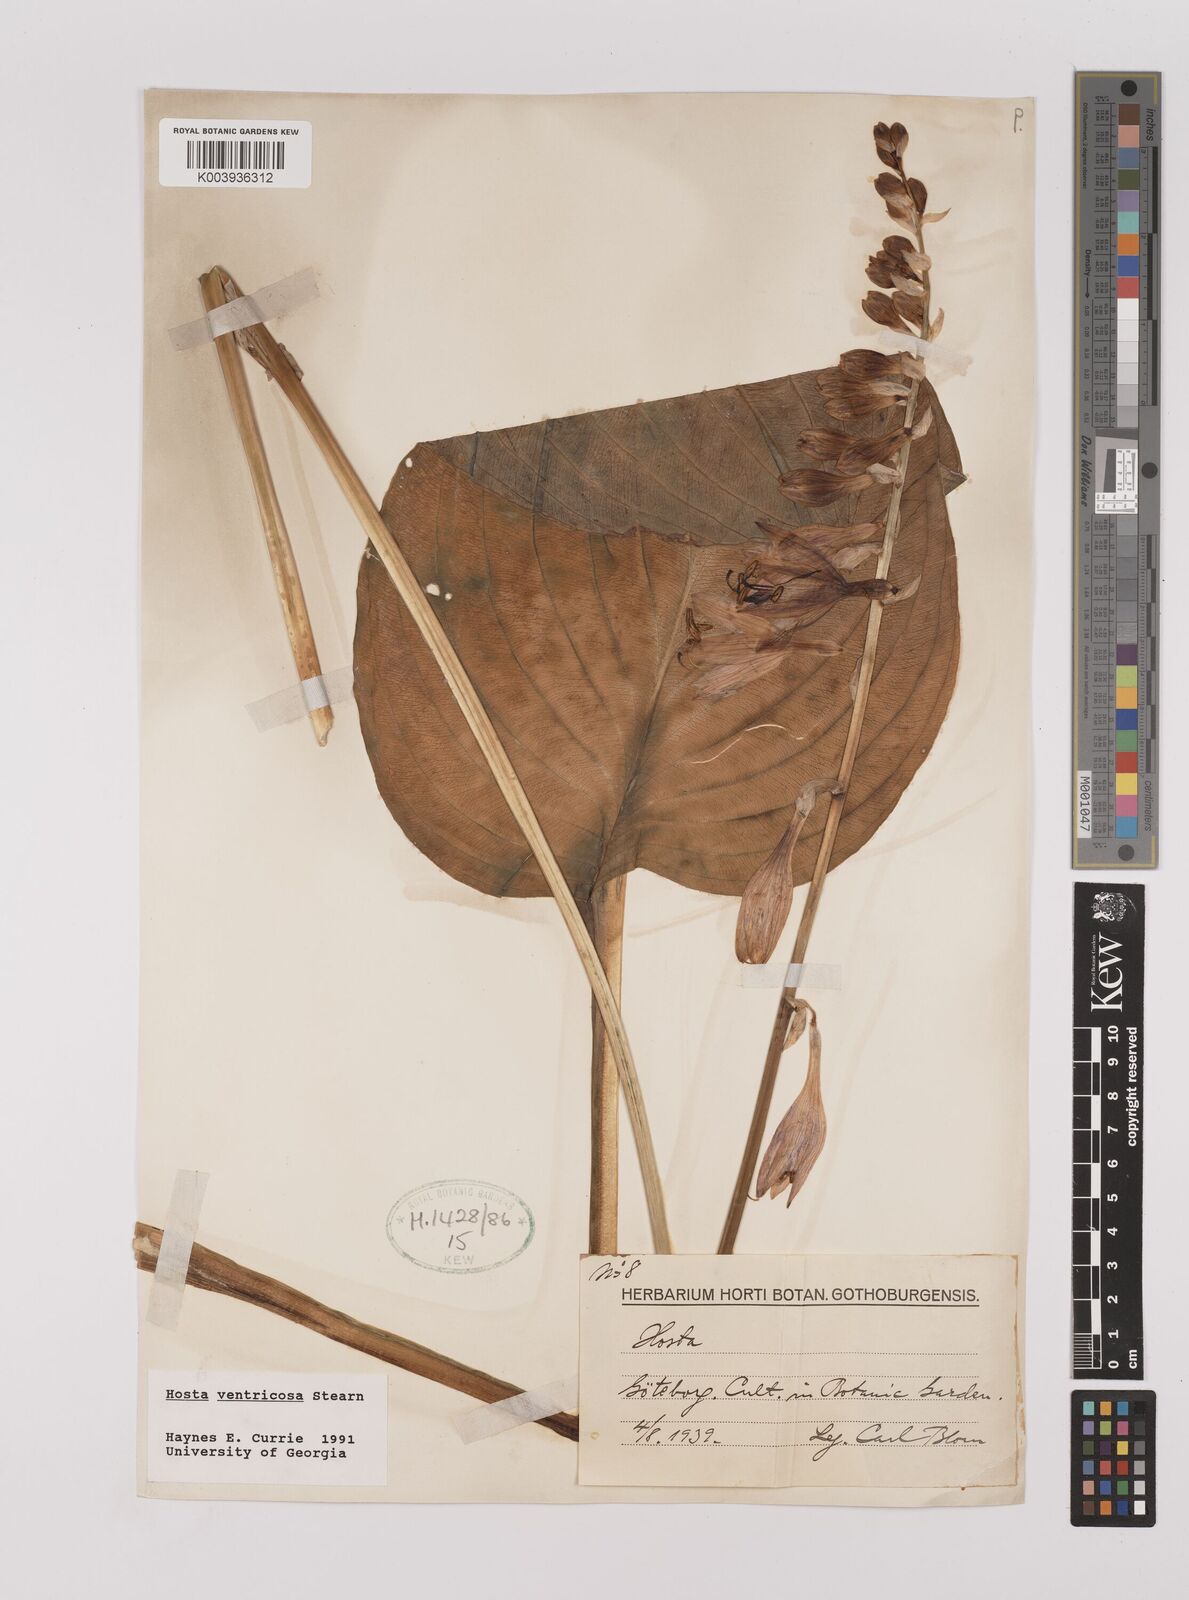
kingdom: Plantae
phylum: Tracheophyta
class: Liliopsida
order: Asparagales
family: Asparagaceae
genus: Hosta
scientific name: Hosta ventricosa
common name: Blue plantain-lily
